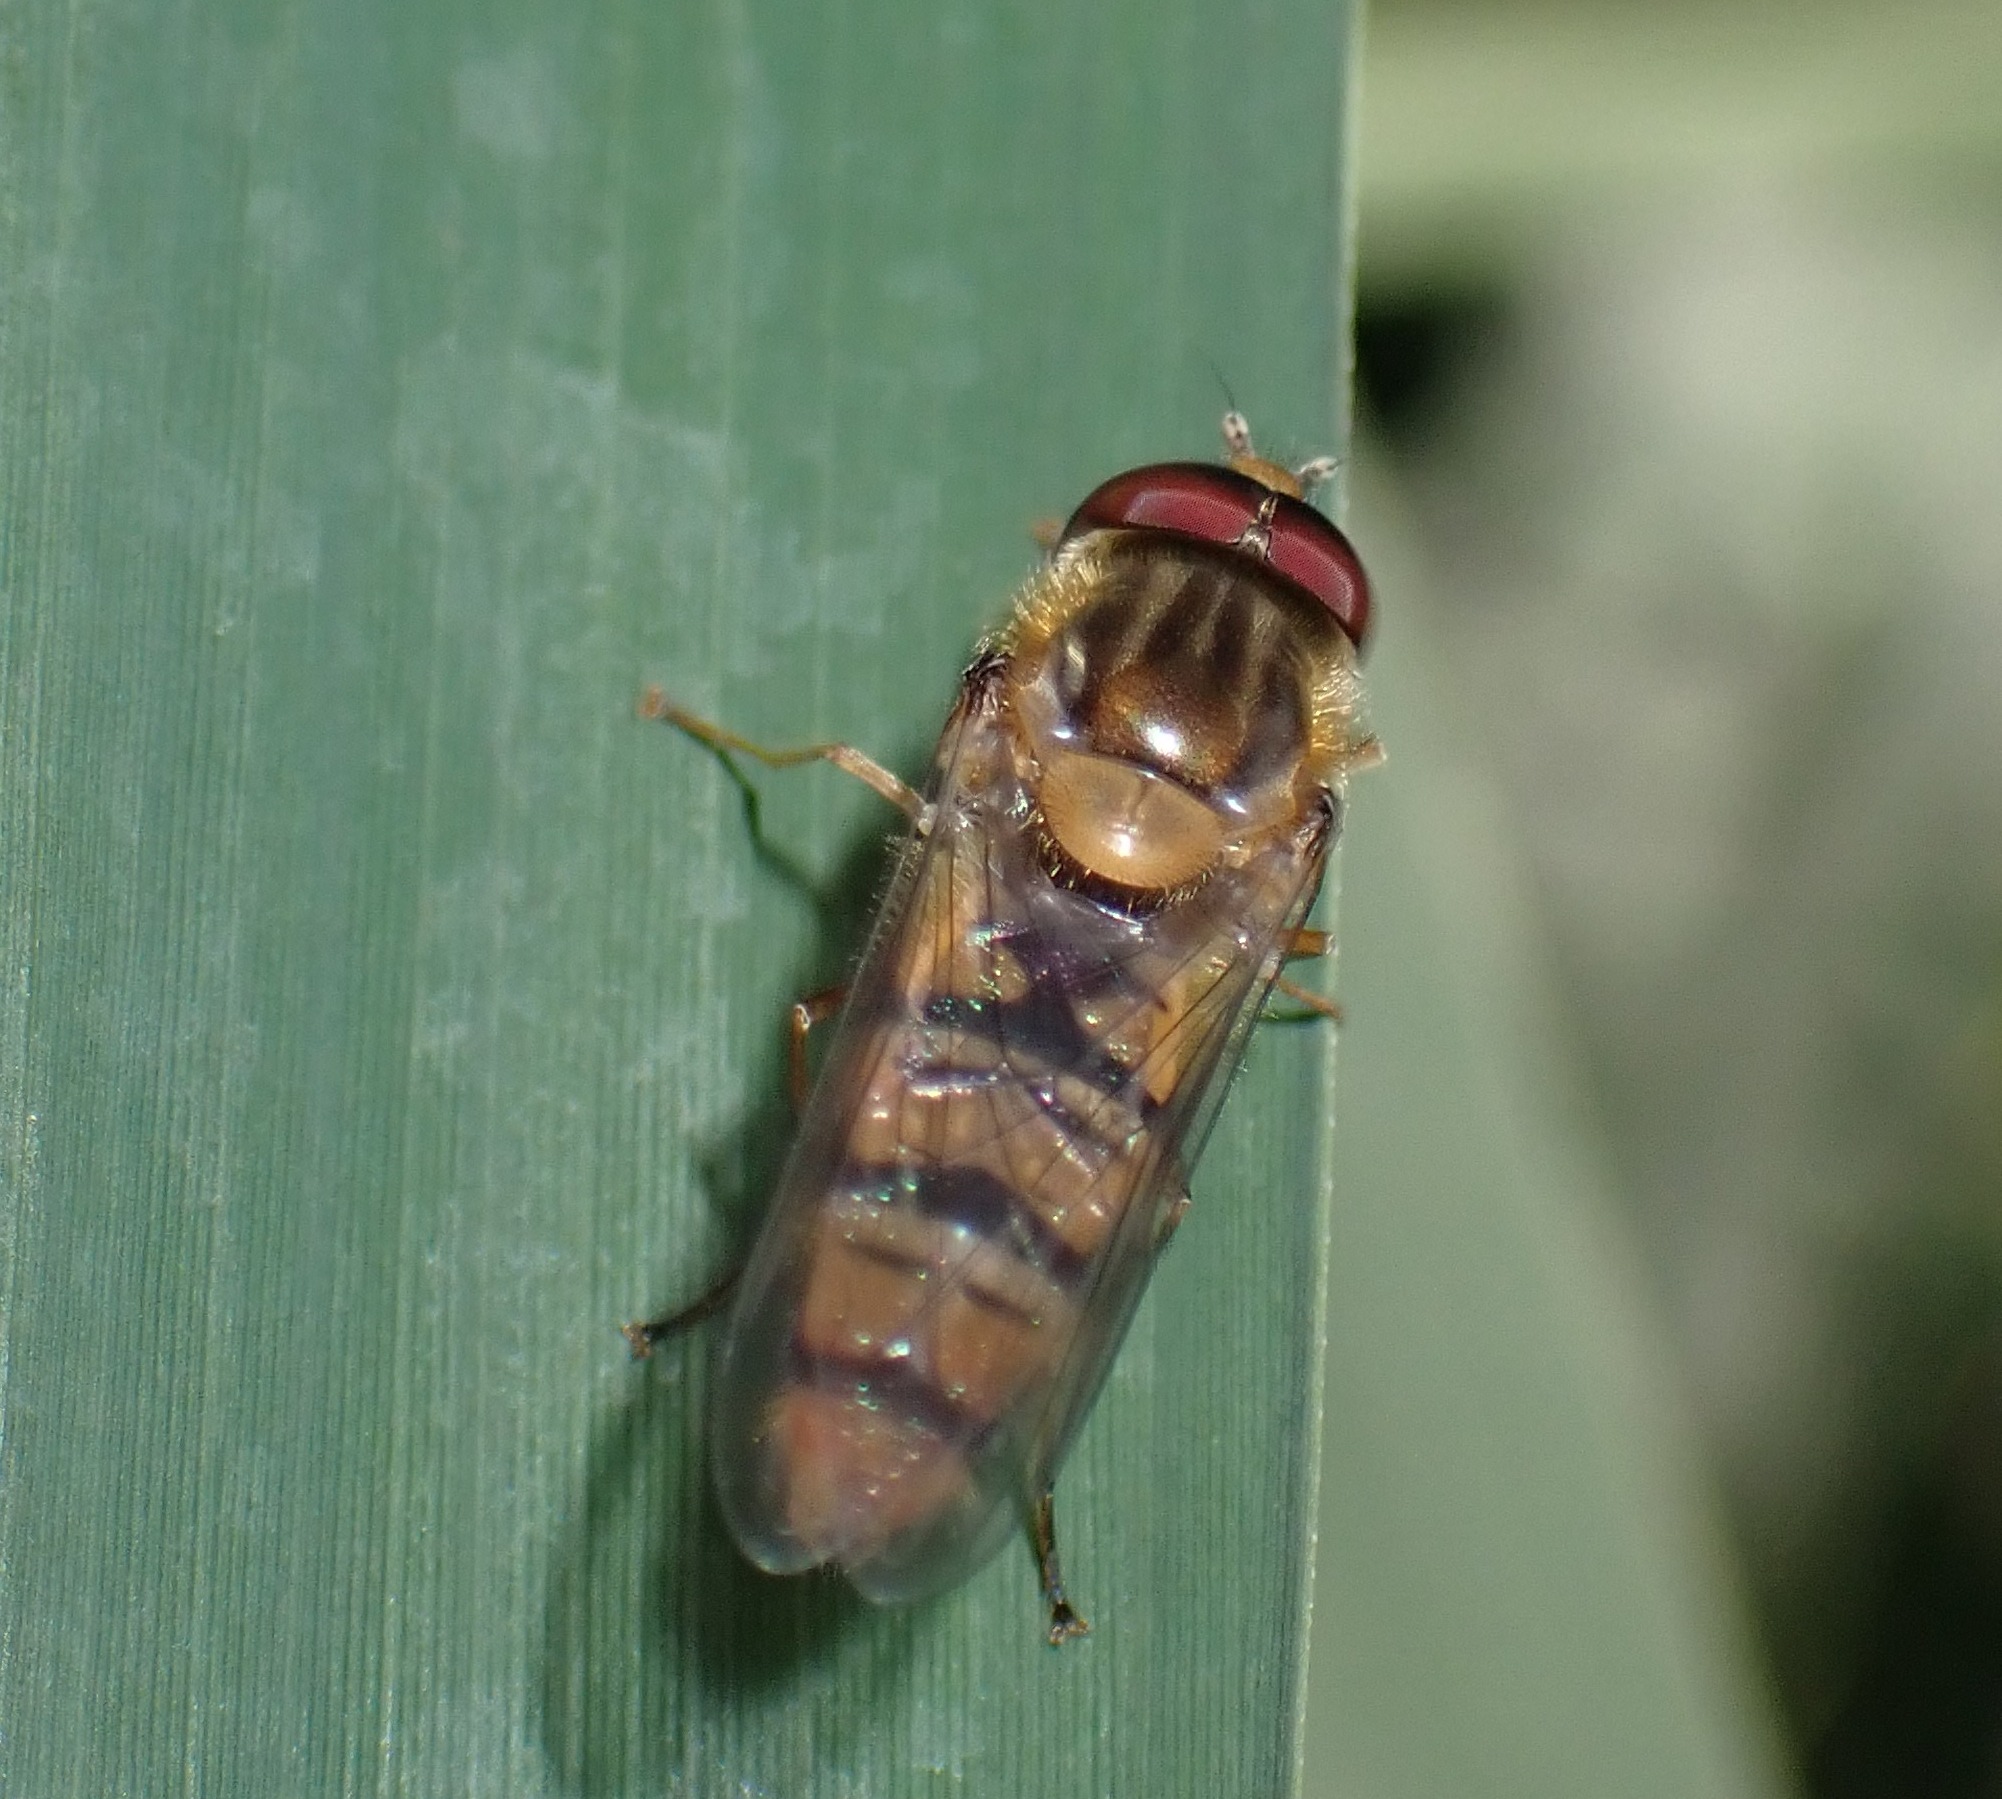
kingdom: Animalia
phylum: Arthropoda
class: Insecta
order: Diptera
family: Syrphidae
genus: Episyrphus
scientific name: Episyrphus balteatus
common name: Dobbeltbåndet svirreflue
